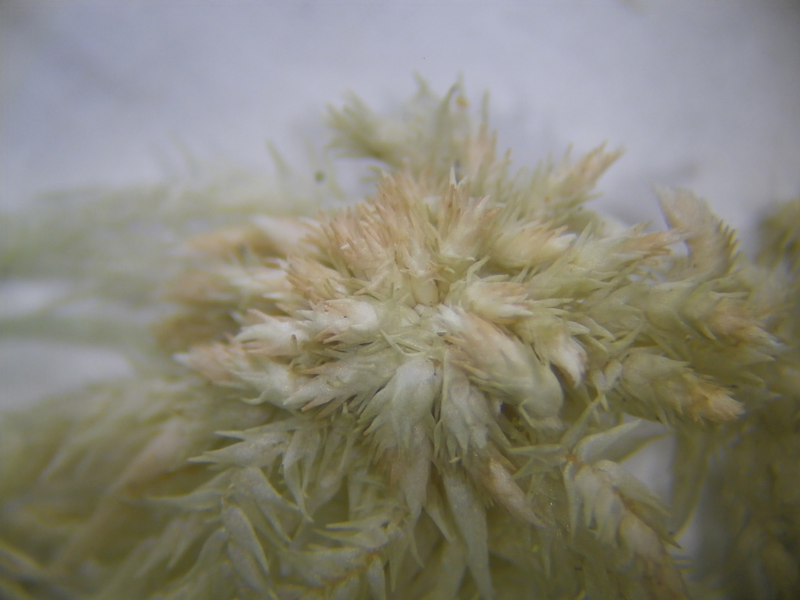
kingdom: Plantae
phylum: Bryophyta
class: Sphagnopsida
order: Sphagnales
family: Sphagnaceae
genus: Sphagnum
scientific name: Sphagnum
